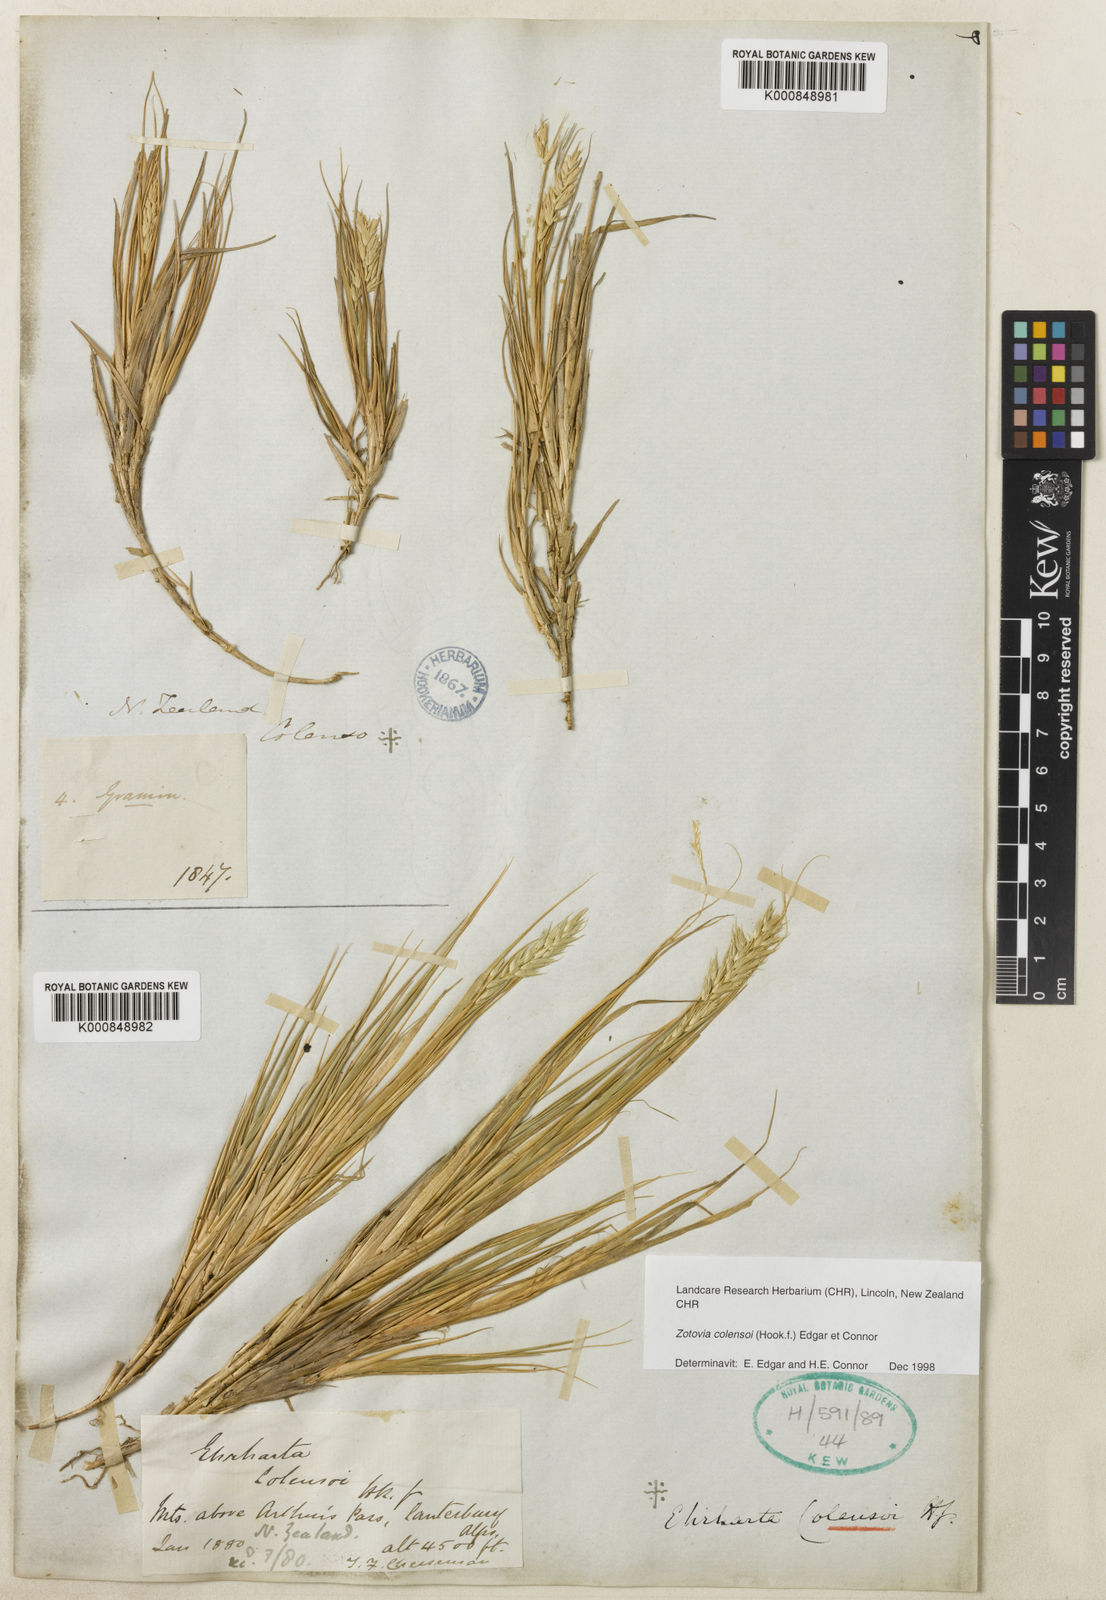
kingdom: Plantae
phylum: Tracheophyta
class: Liliopsida
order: Poales
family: Poaceae
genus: Zotovia
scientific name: Zotovia colensoi
